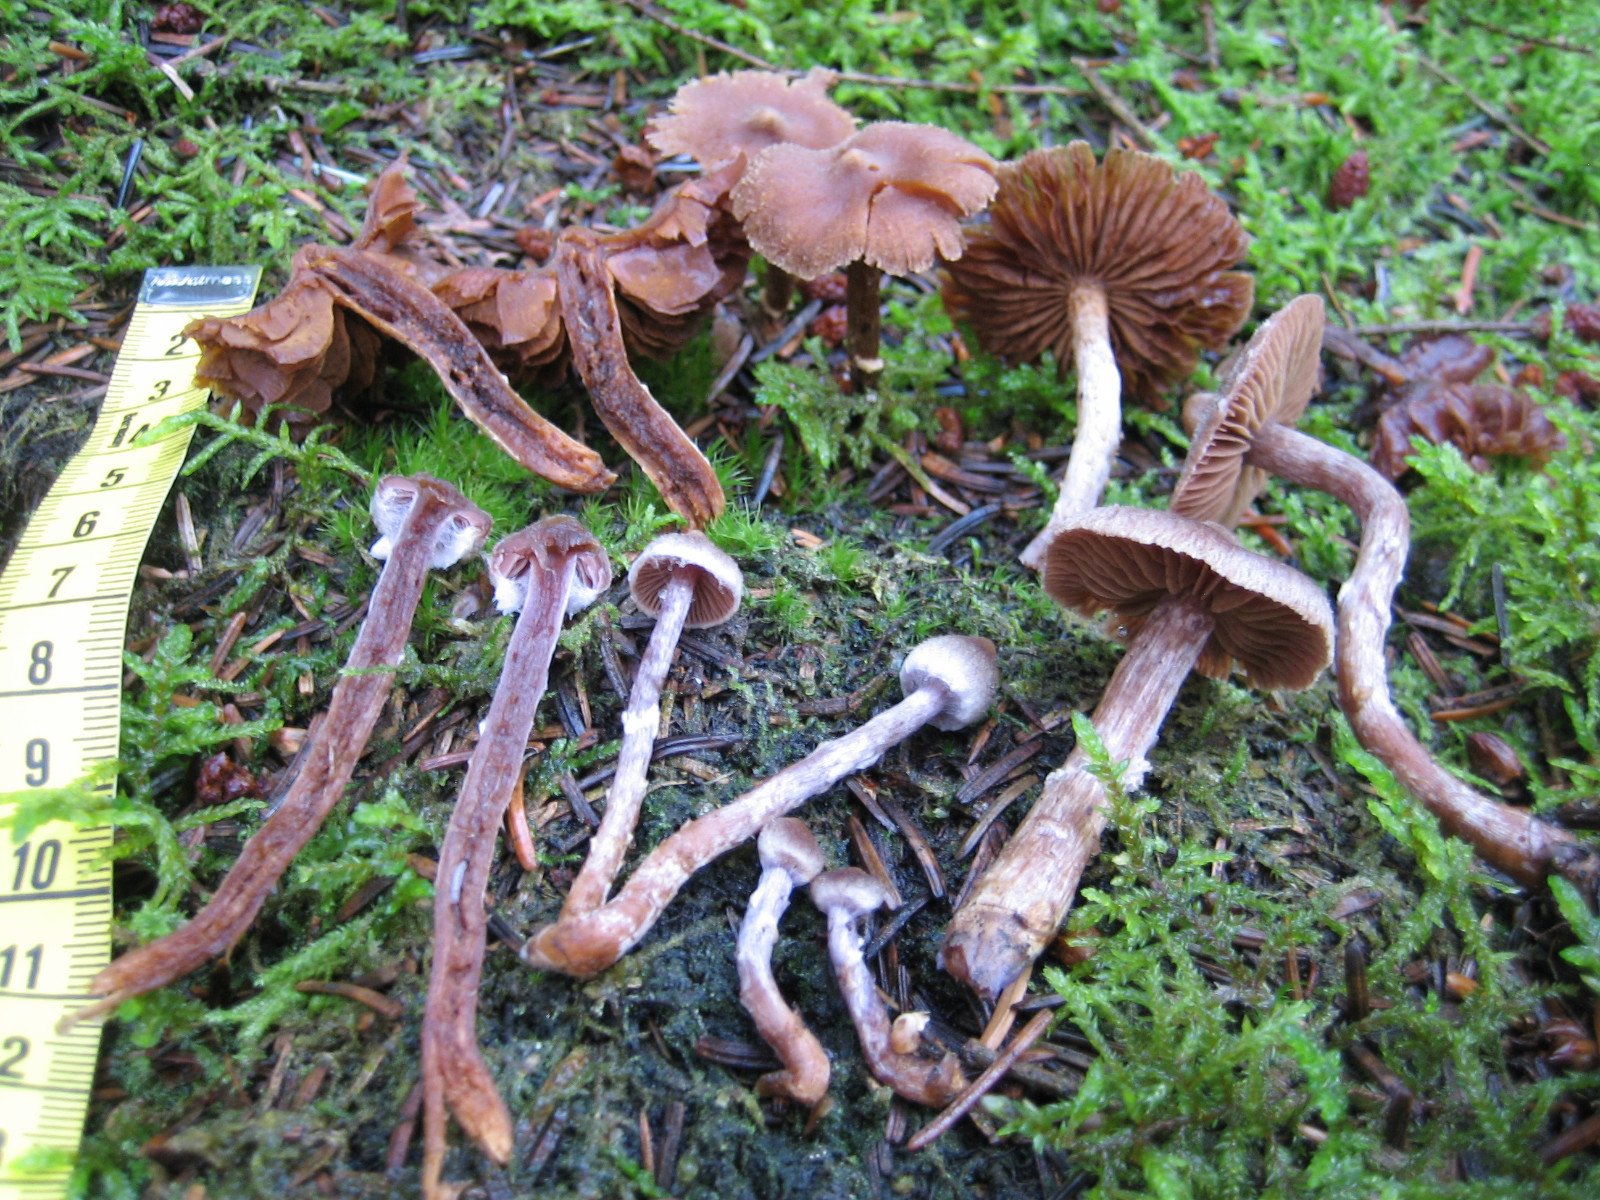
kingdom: Fungi
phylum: Basidiomycota
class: Agaricomycetes
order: Agaricales
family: Cortinariaceae
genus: Cortinarius
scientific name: Cortinarius flexipes
